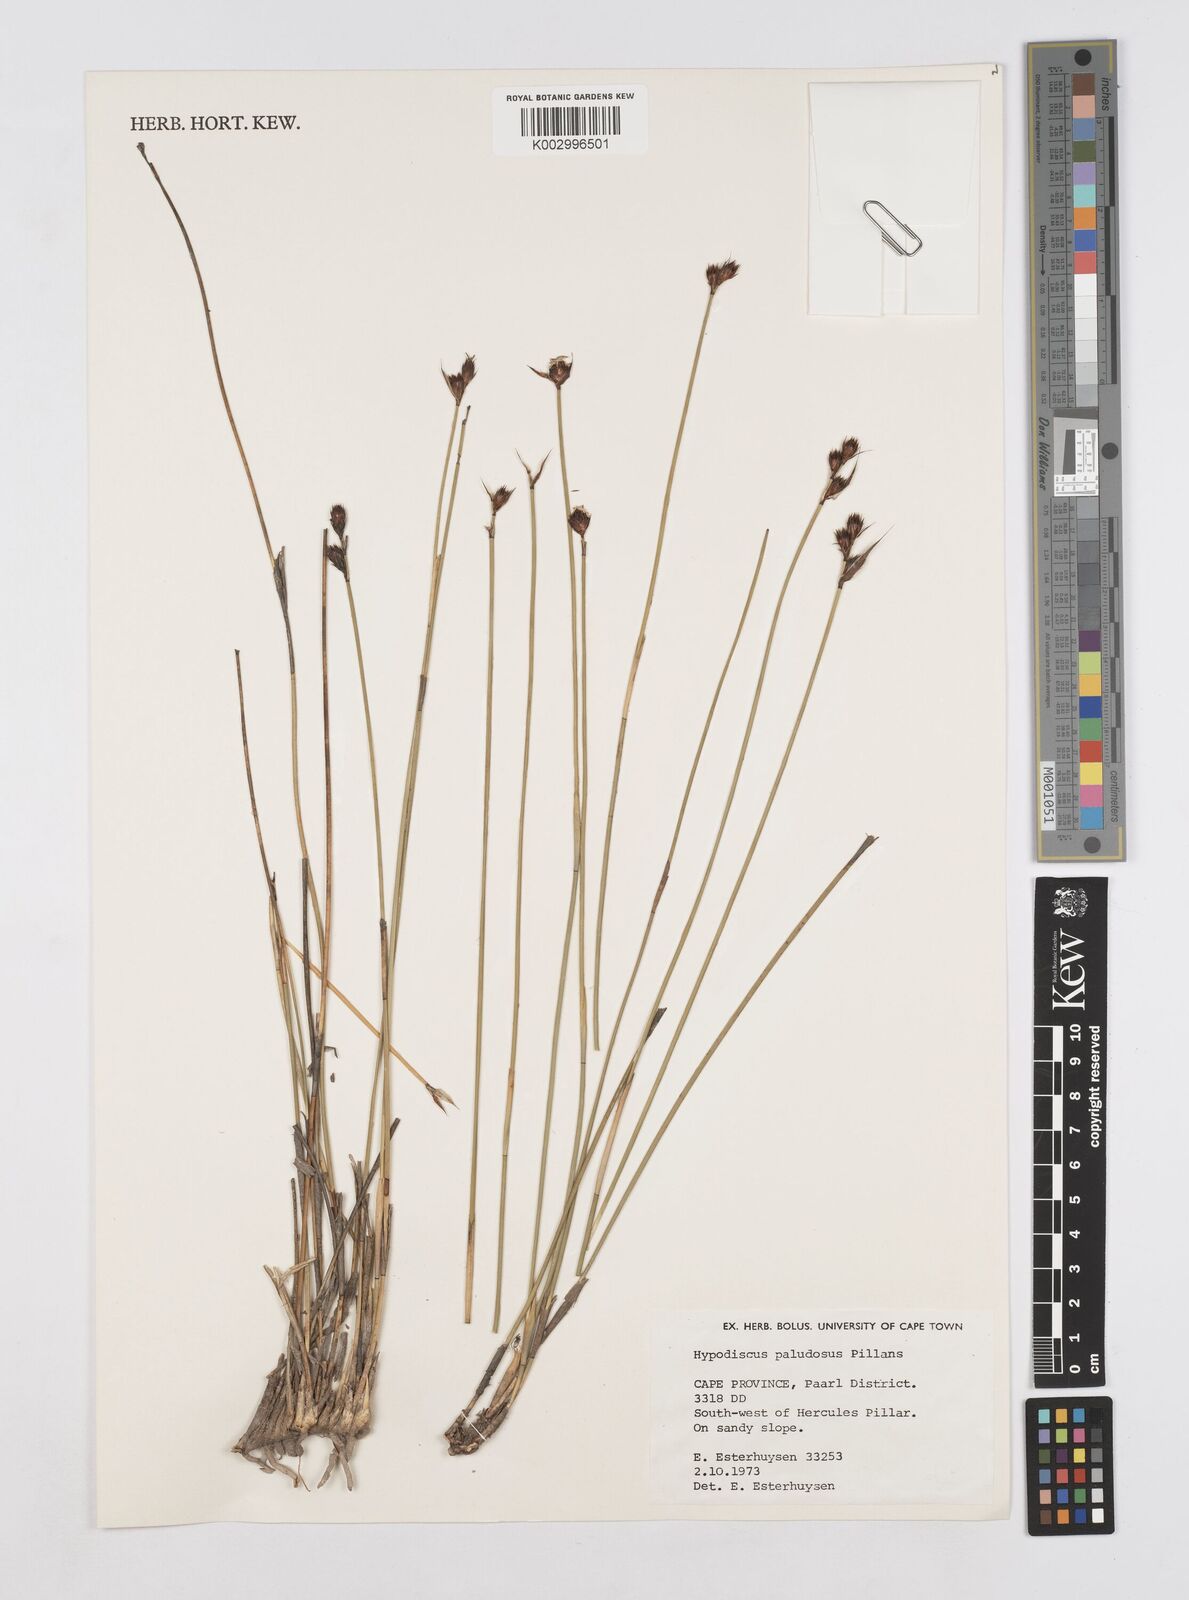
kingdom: Plantae
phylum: Tracheophyta
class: Liliopsida
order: Poales
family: Restionaceae
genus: Hypodiscus
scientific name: Hypodiscus rugosus
